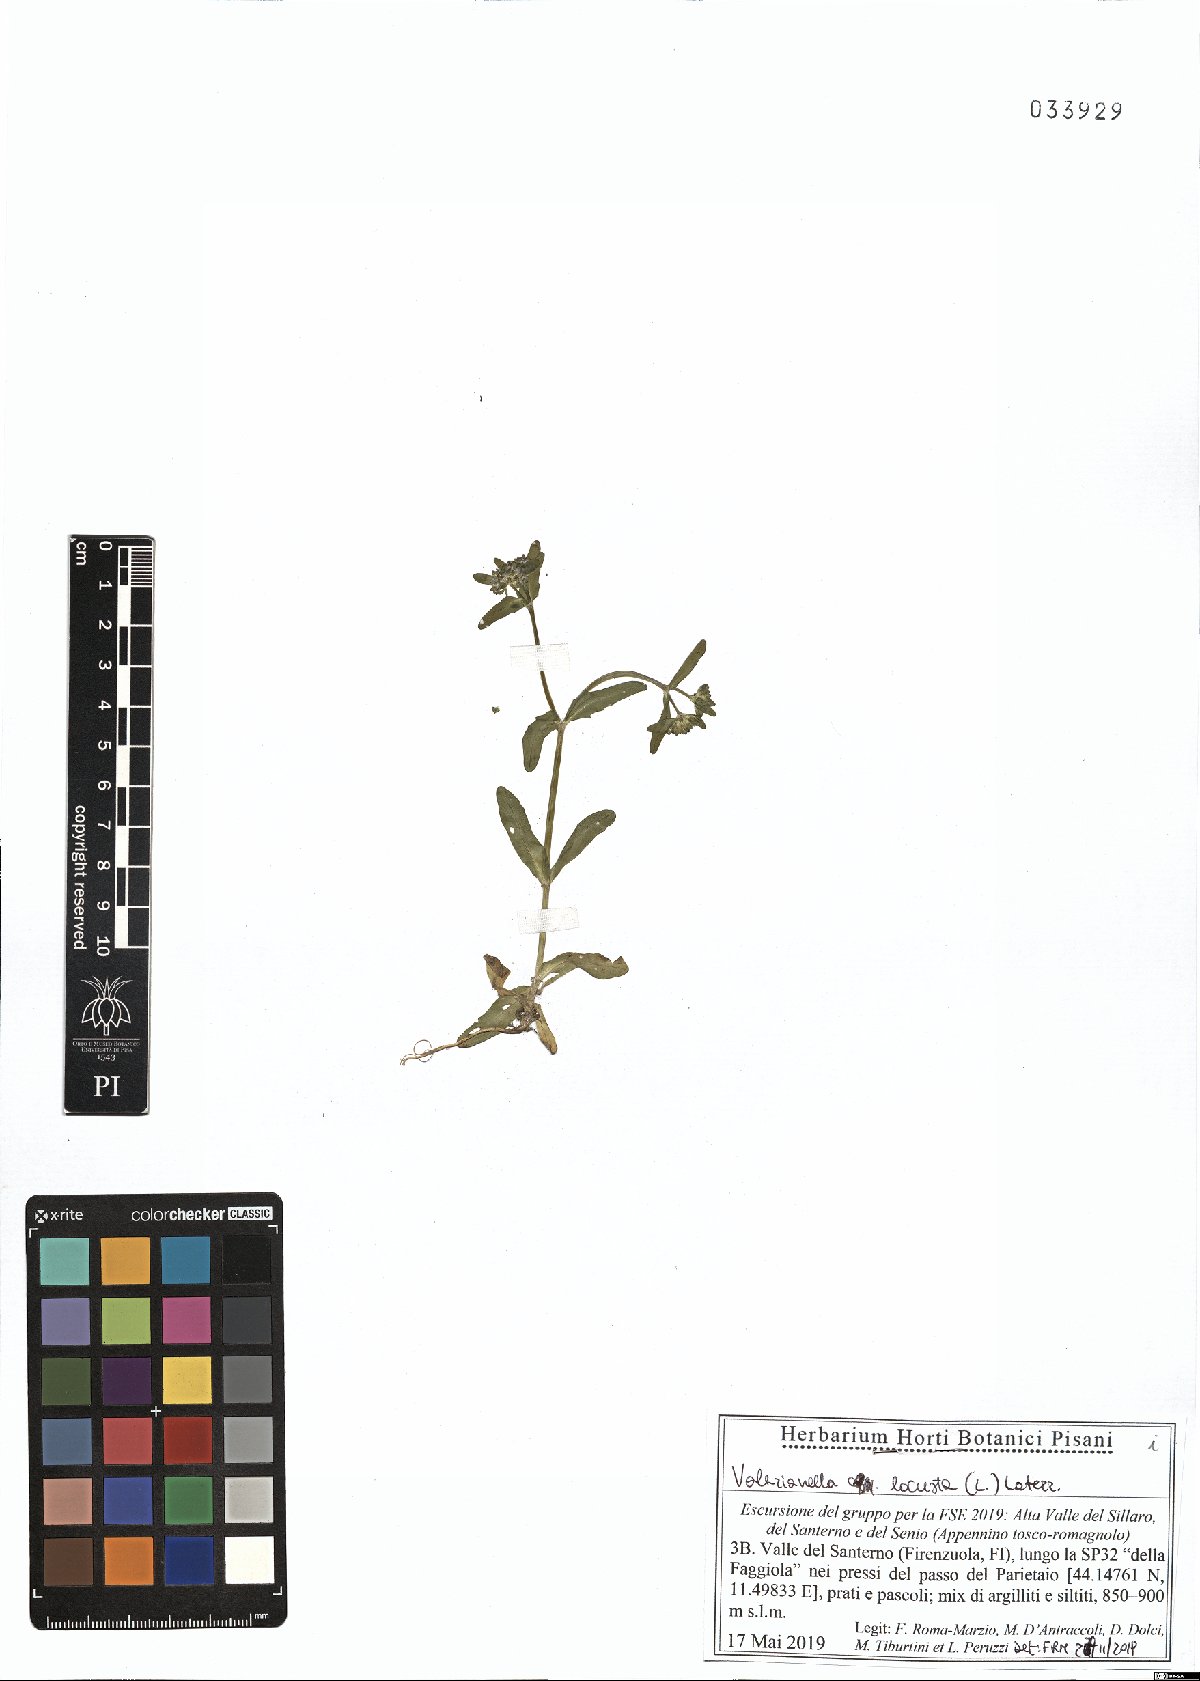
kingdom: Plantae
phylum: Tracheophyta
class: Magnoliopsida
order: Dipsacales
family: Caprifoliaceae
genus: Valerianella
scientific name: Valerianella locusta
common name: Common cornsalad
